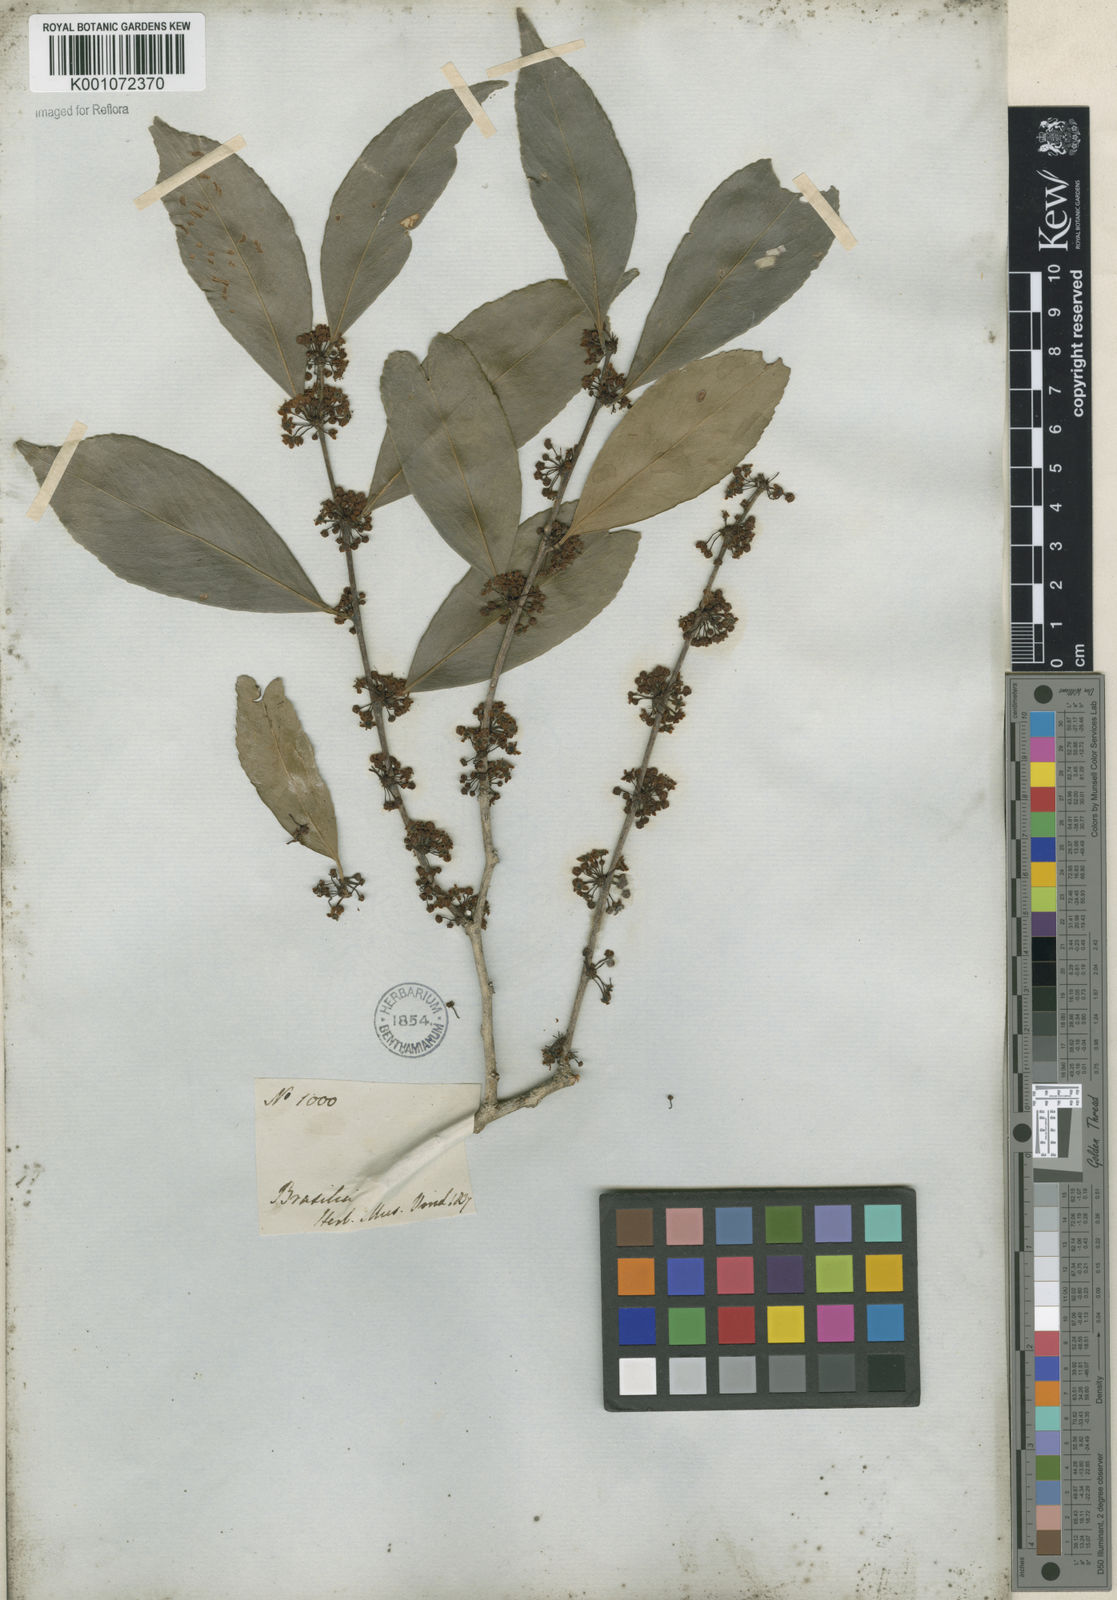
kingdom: Plantae
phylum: Tracheophyta
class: Magnoliopsida
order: Celastrales
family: Celastraceae
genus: Maytenus
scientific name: Maytenus
